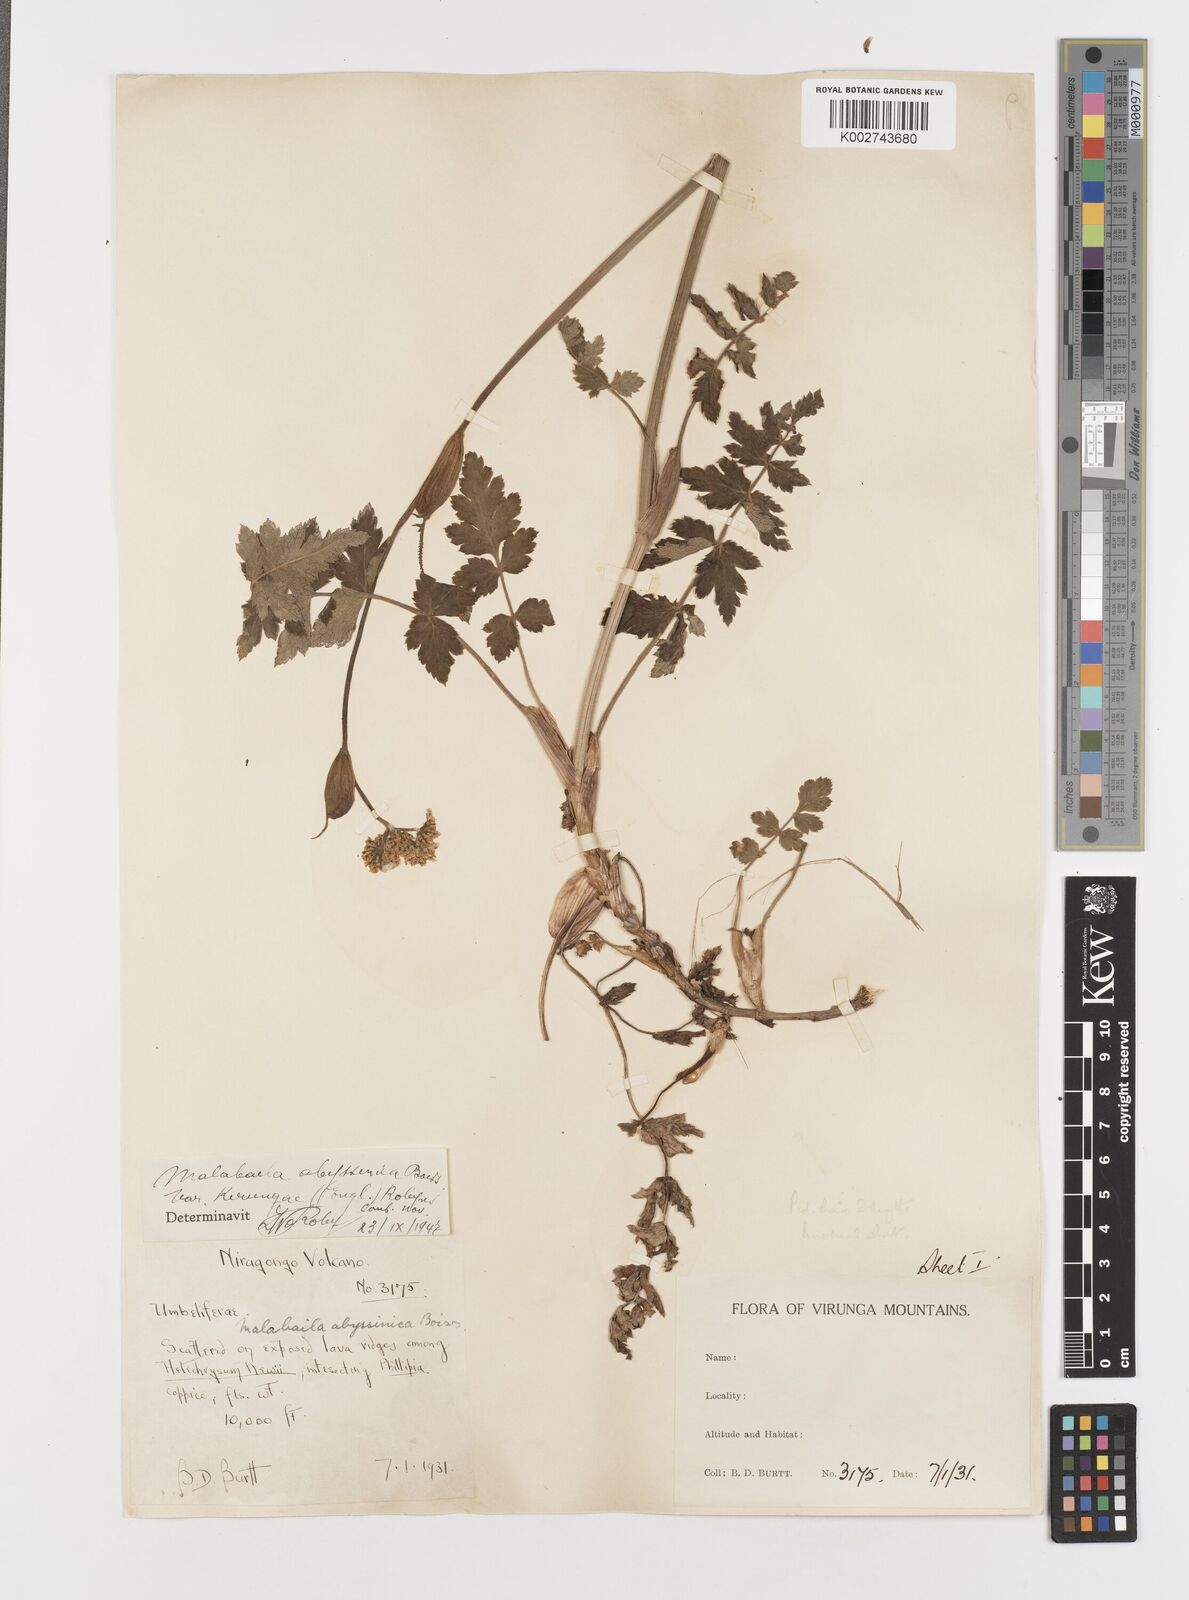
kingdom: Plantae
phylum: Tracheophyta
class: Magnoliopsida
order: Apiales
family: Apiaceae
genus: Heracleum
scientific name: Heracleum abyssinicum
